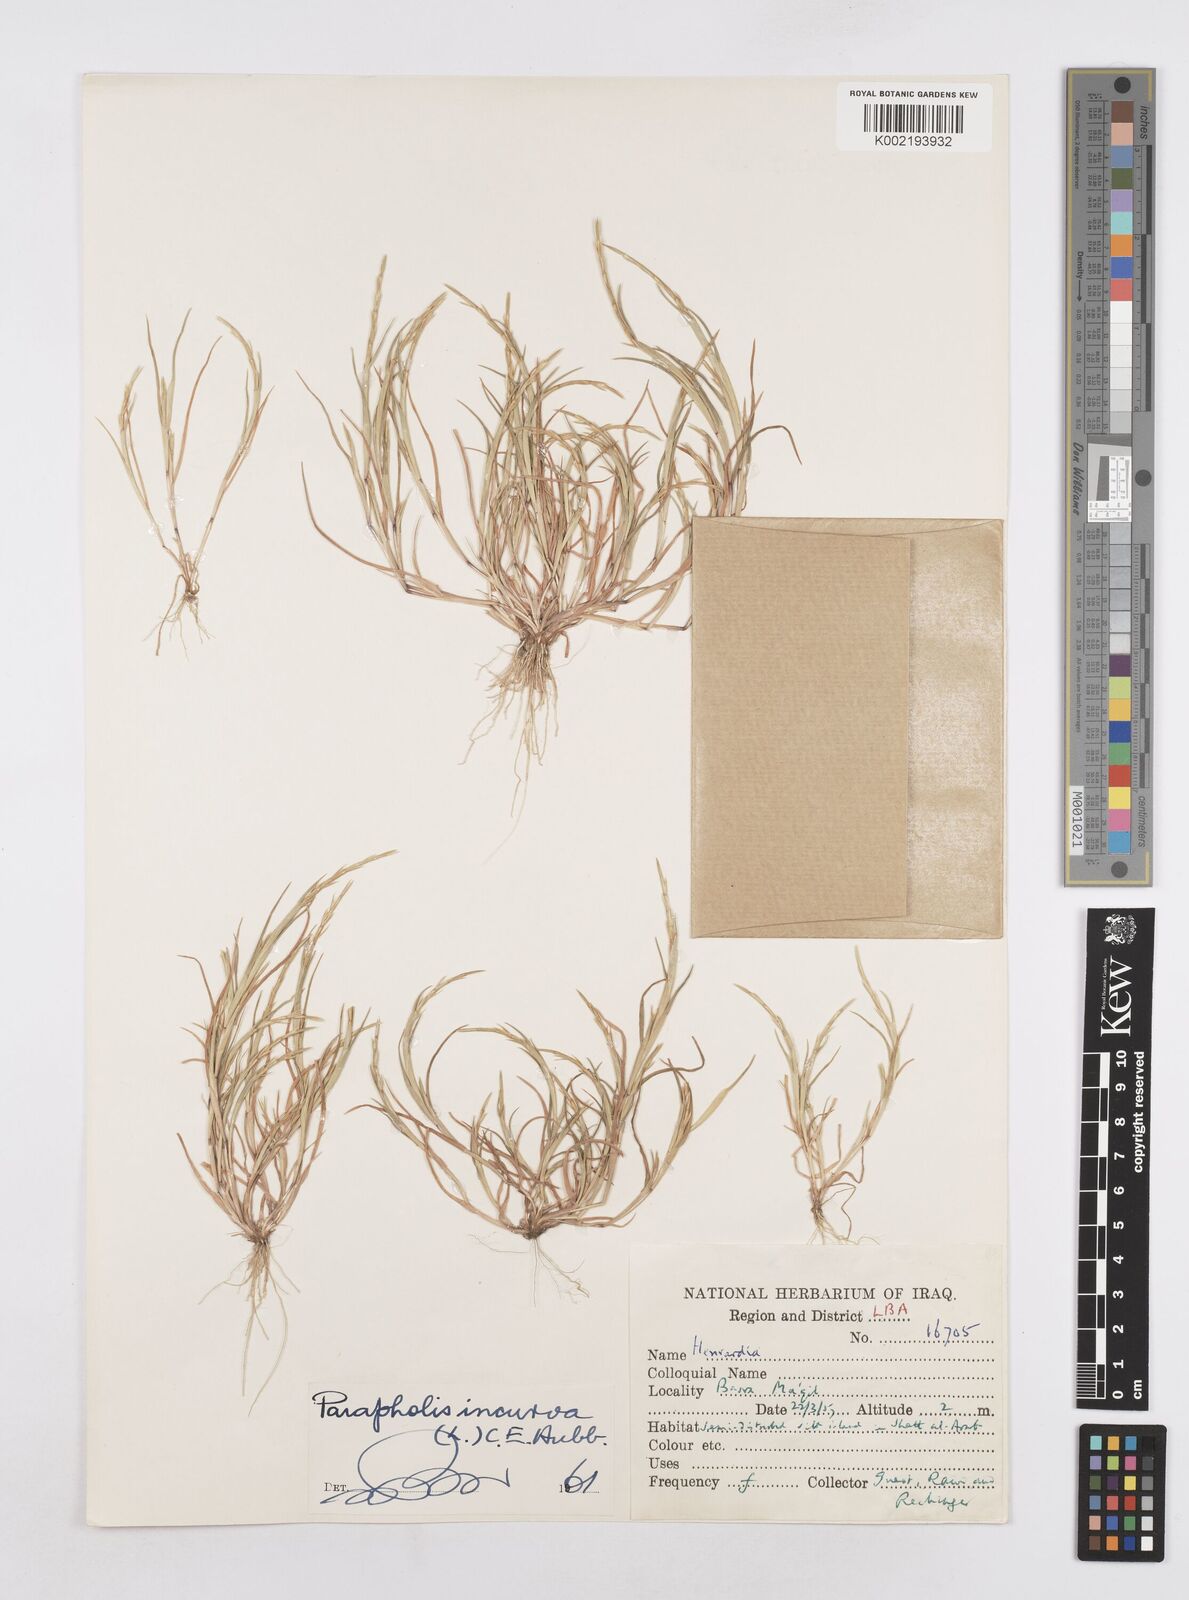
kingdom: Plantae
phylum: Tracheophyta
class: Liliopsida
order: Poales
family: Poaceae
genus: Parapholis
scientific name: Parapholis incurva
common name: Curved sicklegrass
